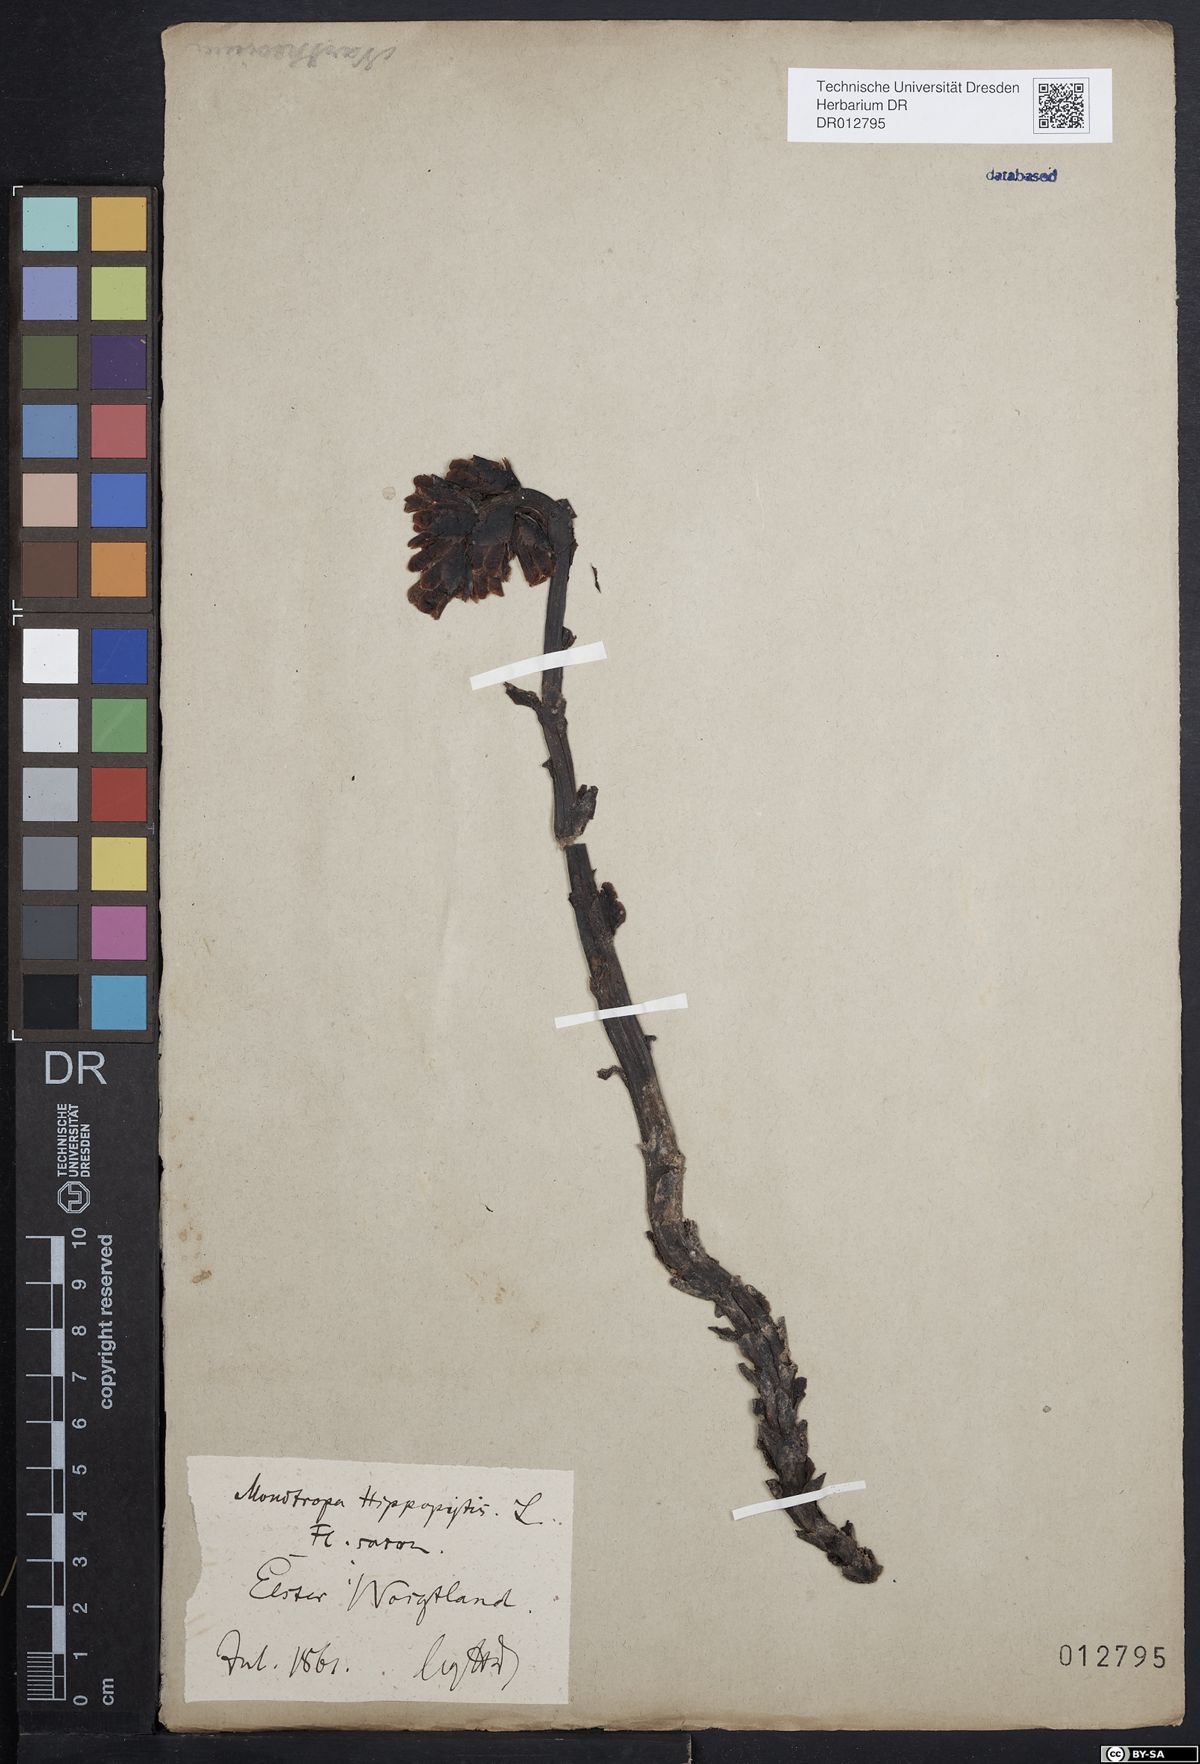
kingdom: Plantae
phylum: Tracheophyta
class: Magnoliopsida
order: Ericales
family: Ericaceae
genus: Hypopitys
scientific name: Hypopitys monotropa
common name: Yellow bird's-nest
